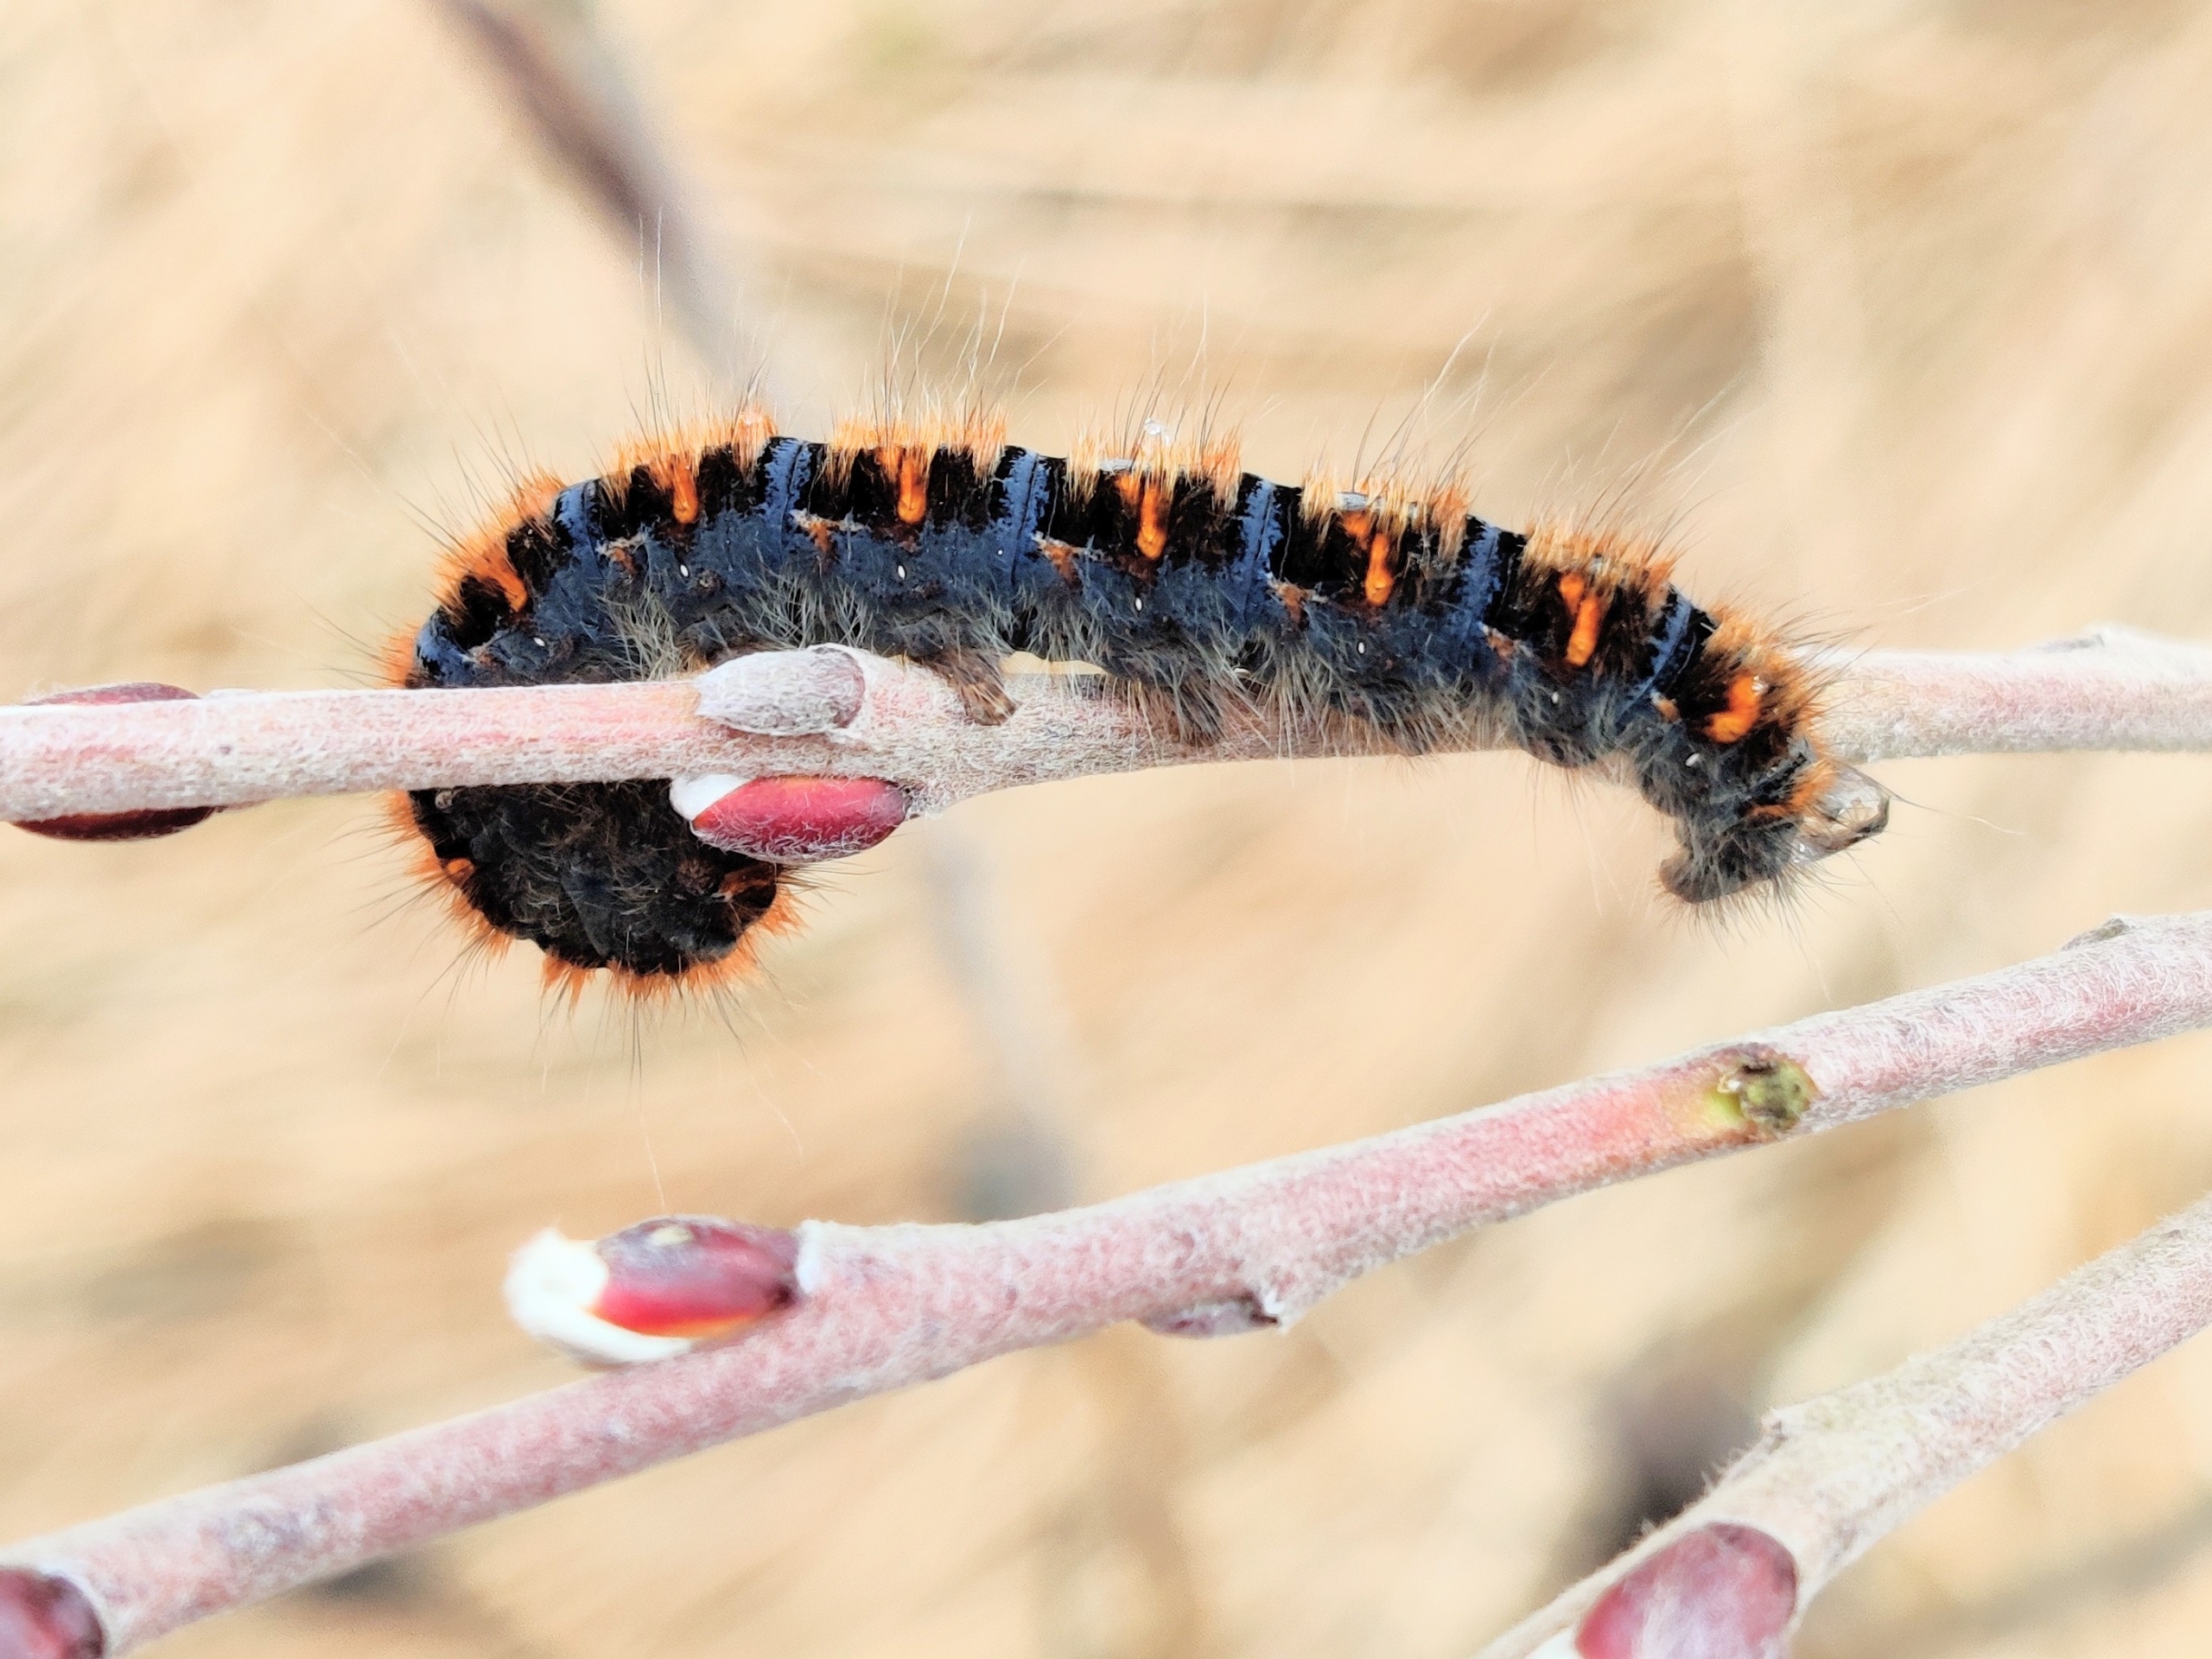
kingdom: Animalia
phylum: Arthropoda
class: Insecta
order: Lepidoptera
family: Lasiocampidae
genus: Lasiocampa
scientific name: Lasiocampa quercus
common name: Egespinder
